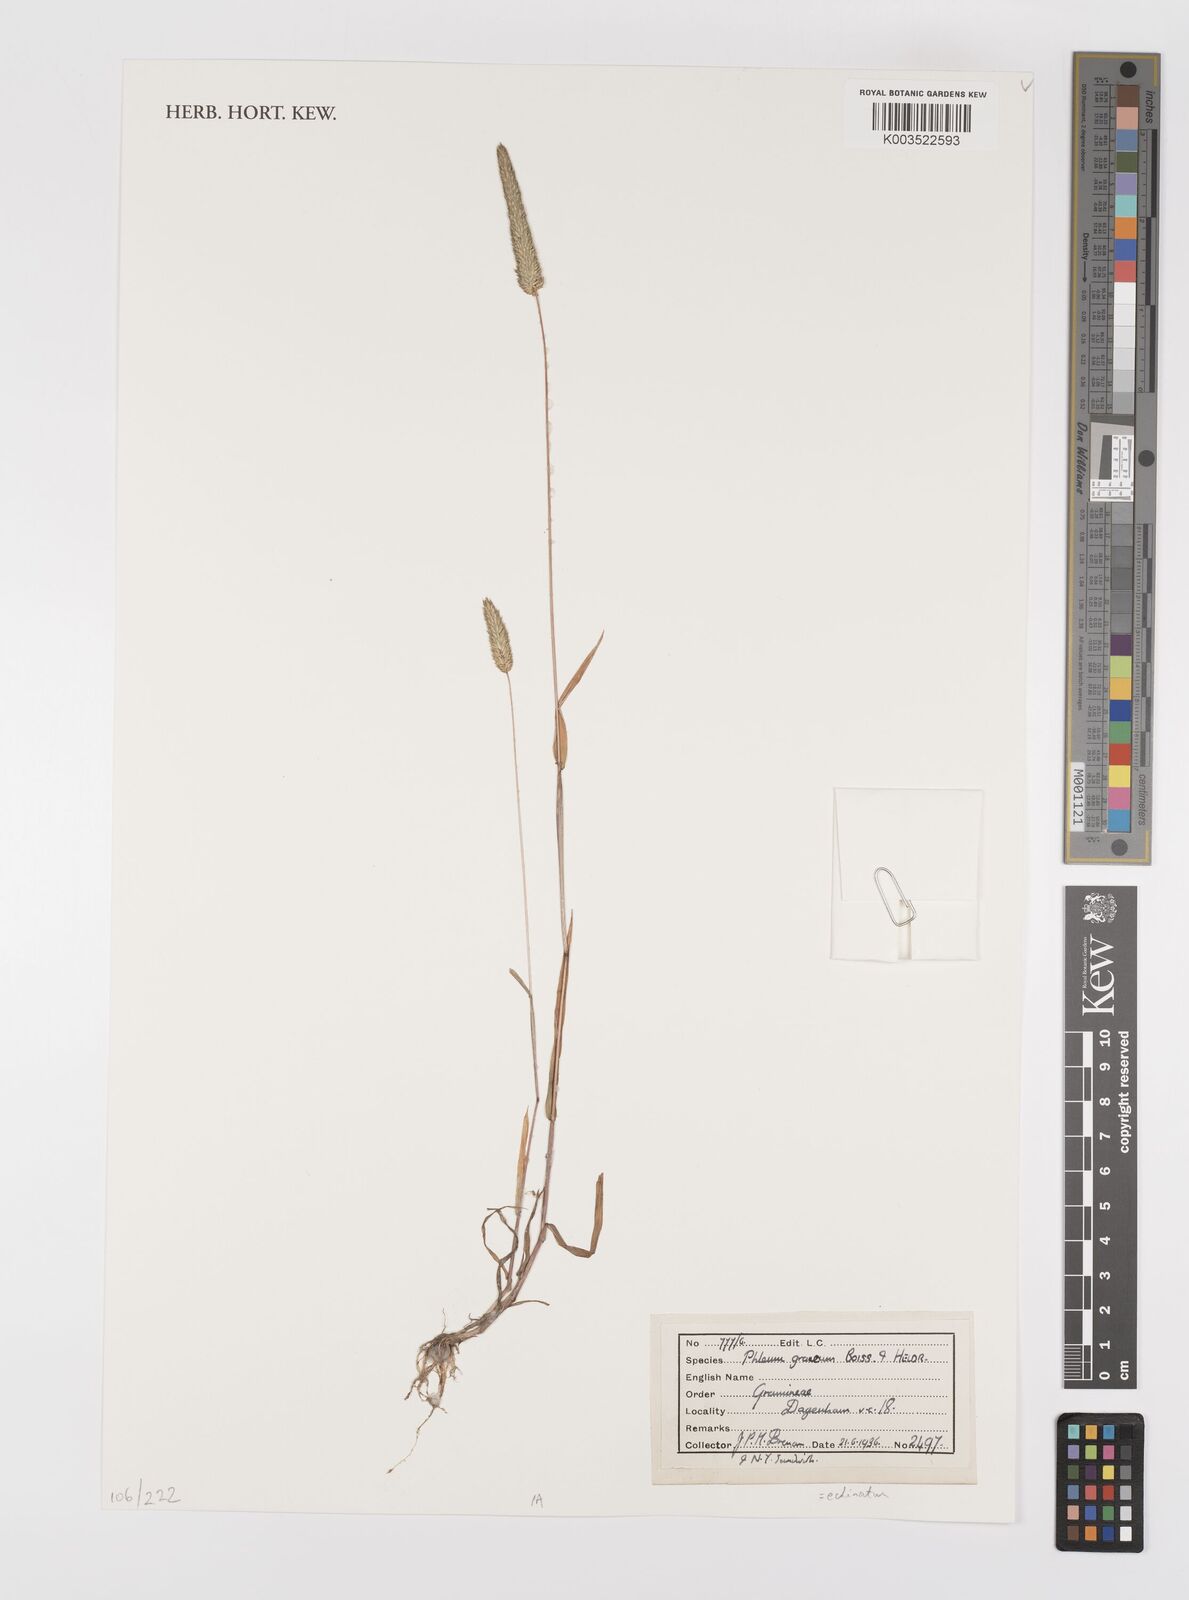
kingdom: Plantae
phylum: Tracheophyta
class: Liliopsida
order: Poales
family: Poaceae
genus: Phleum
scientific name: Phleum echinatum
